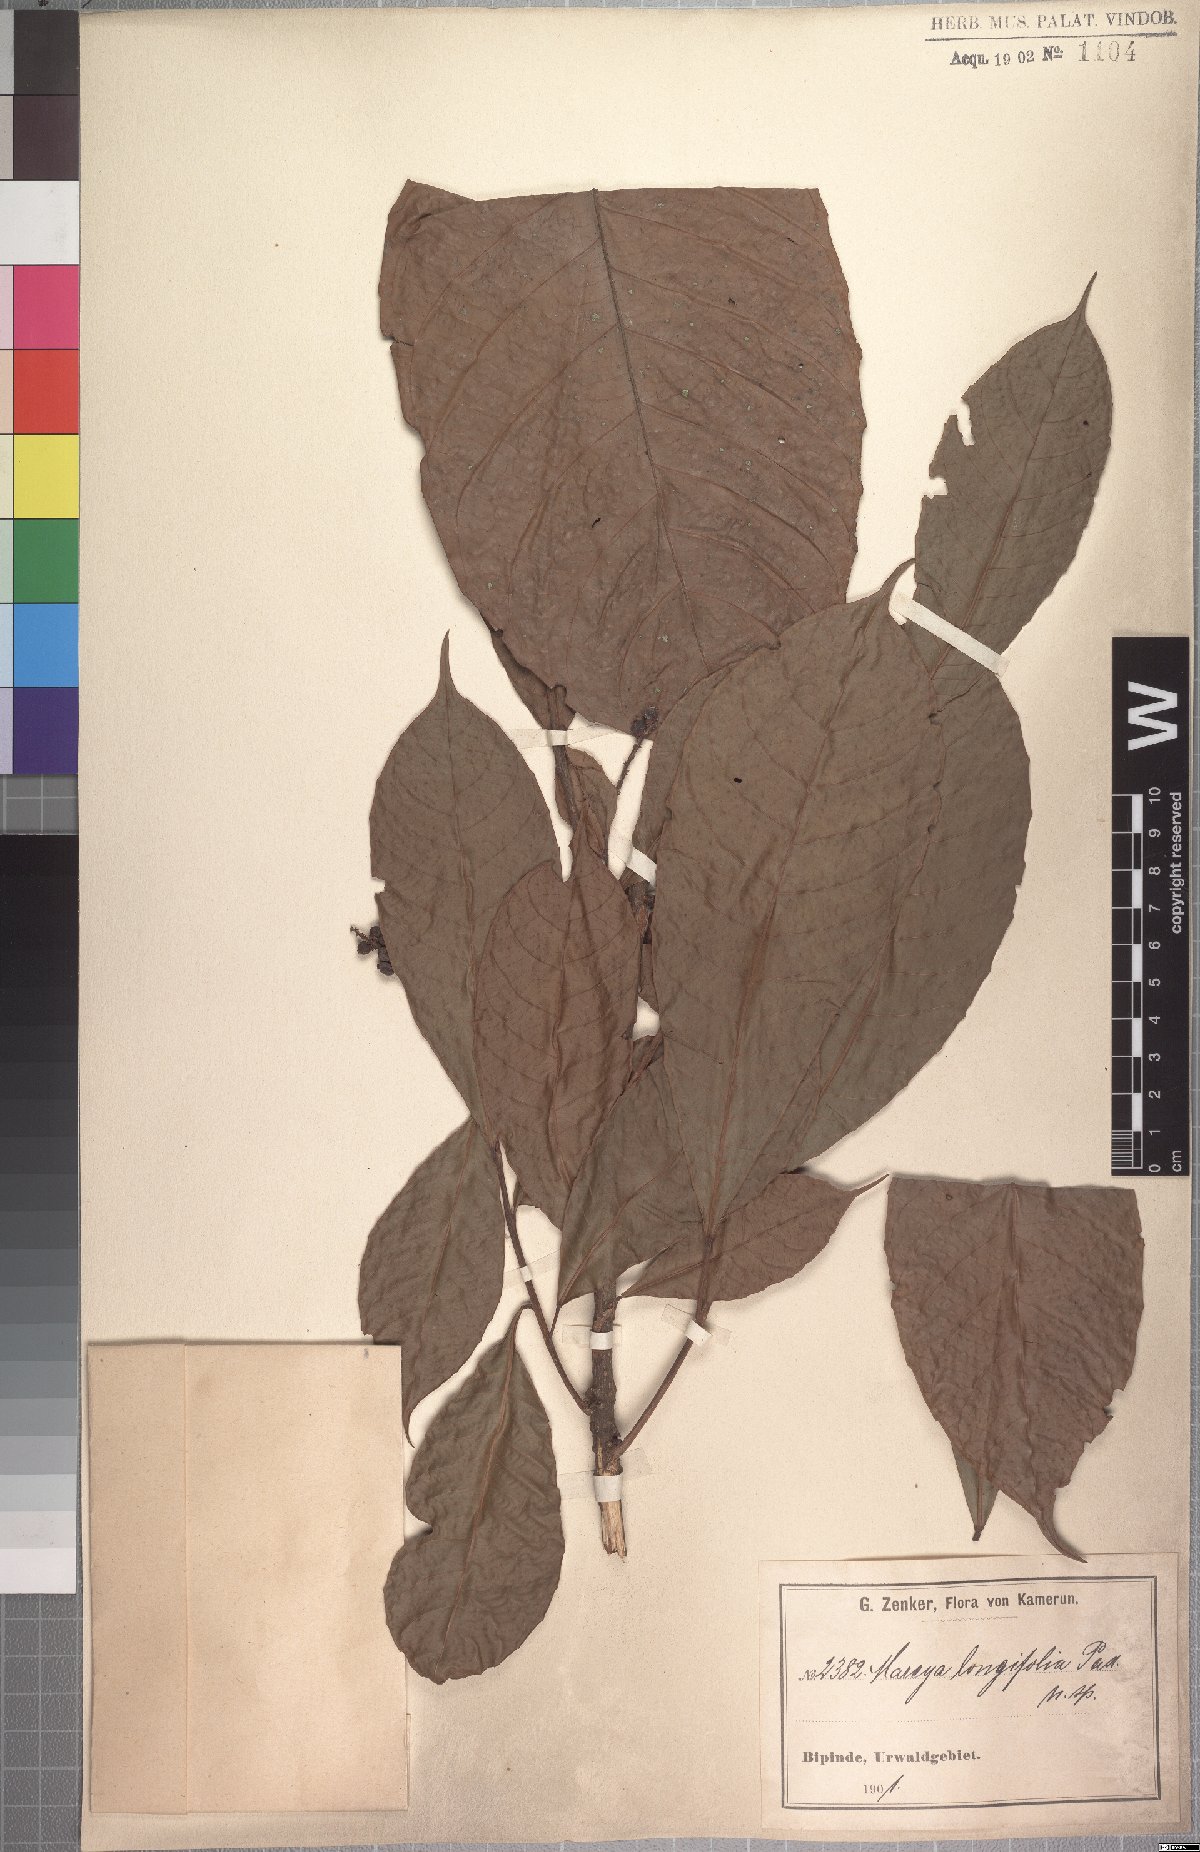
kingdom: Plantae
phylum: Tracheophyta
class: Magnoliopsida
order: Malpighiales
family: Euphorbiaceae
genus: Mareyopsis
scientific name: Mareyopsis longifolia
